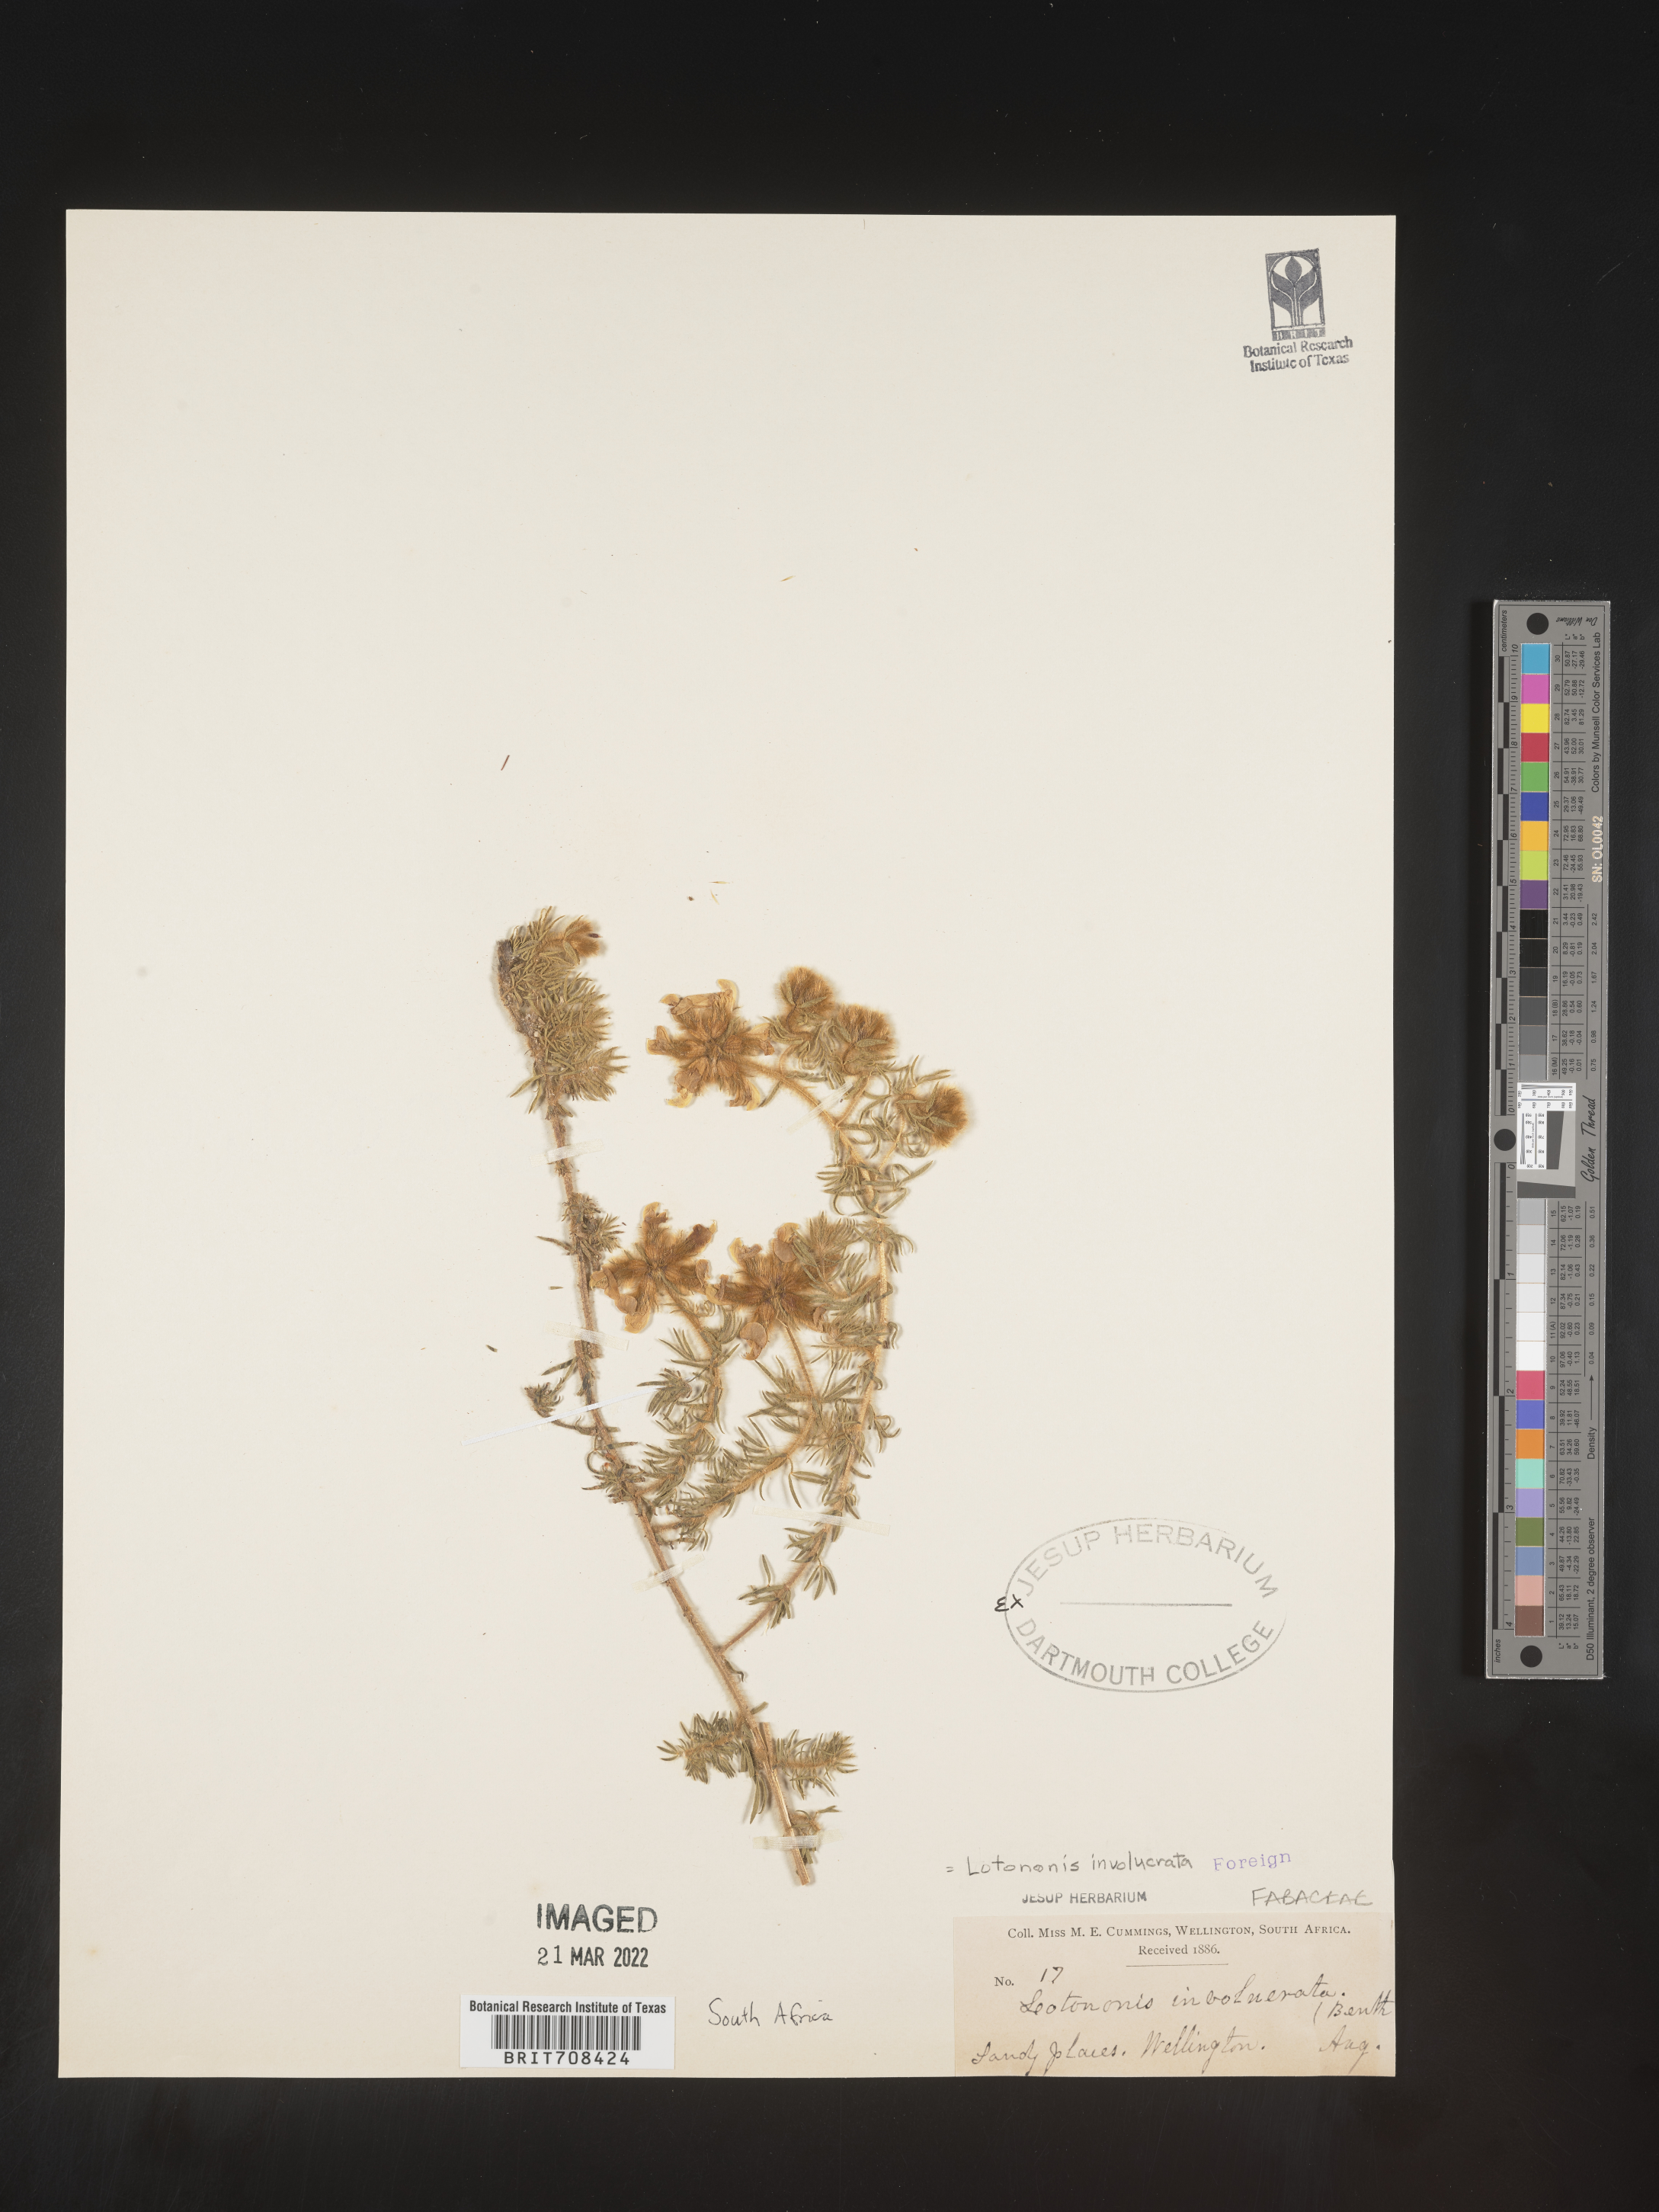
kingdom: Plantae
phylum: Tracheophyta
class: Magnoliopsida
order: Fabales
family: Fabaceae
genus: Lotononis
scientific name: Lotononis
